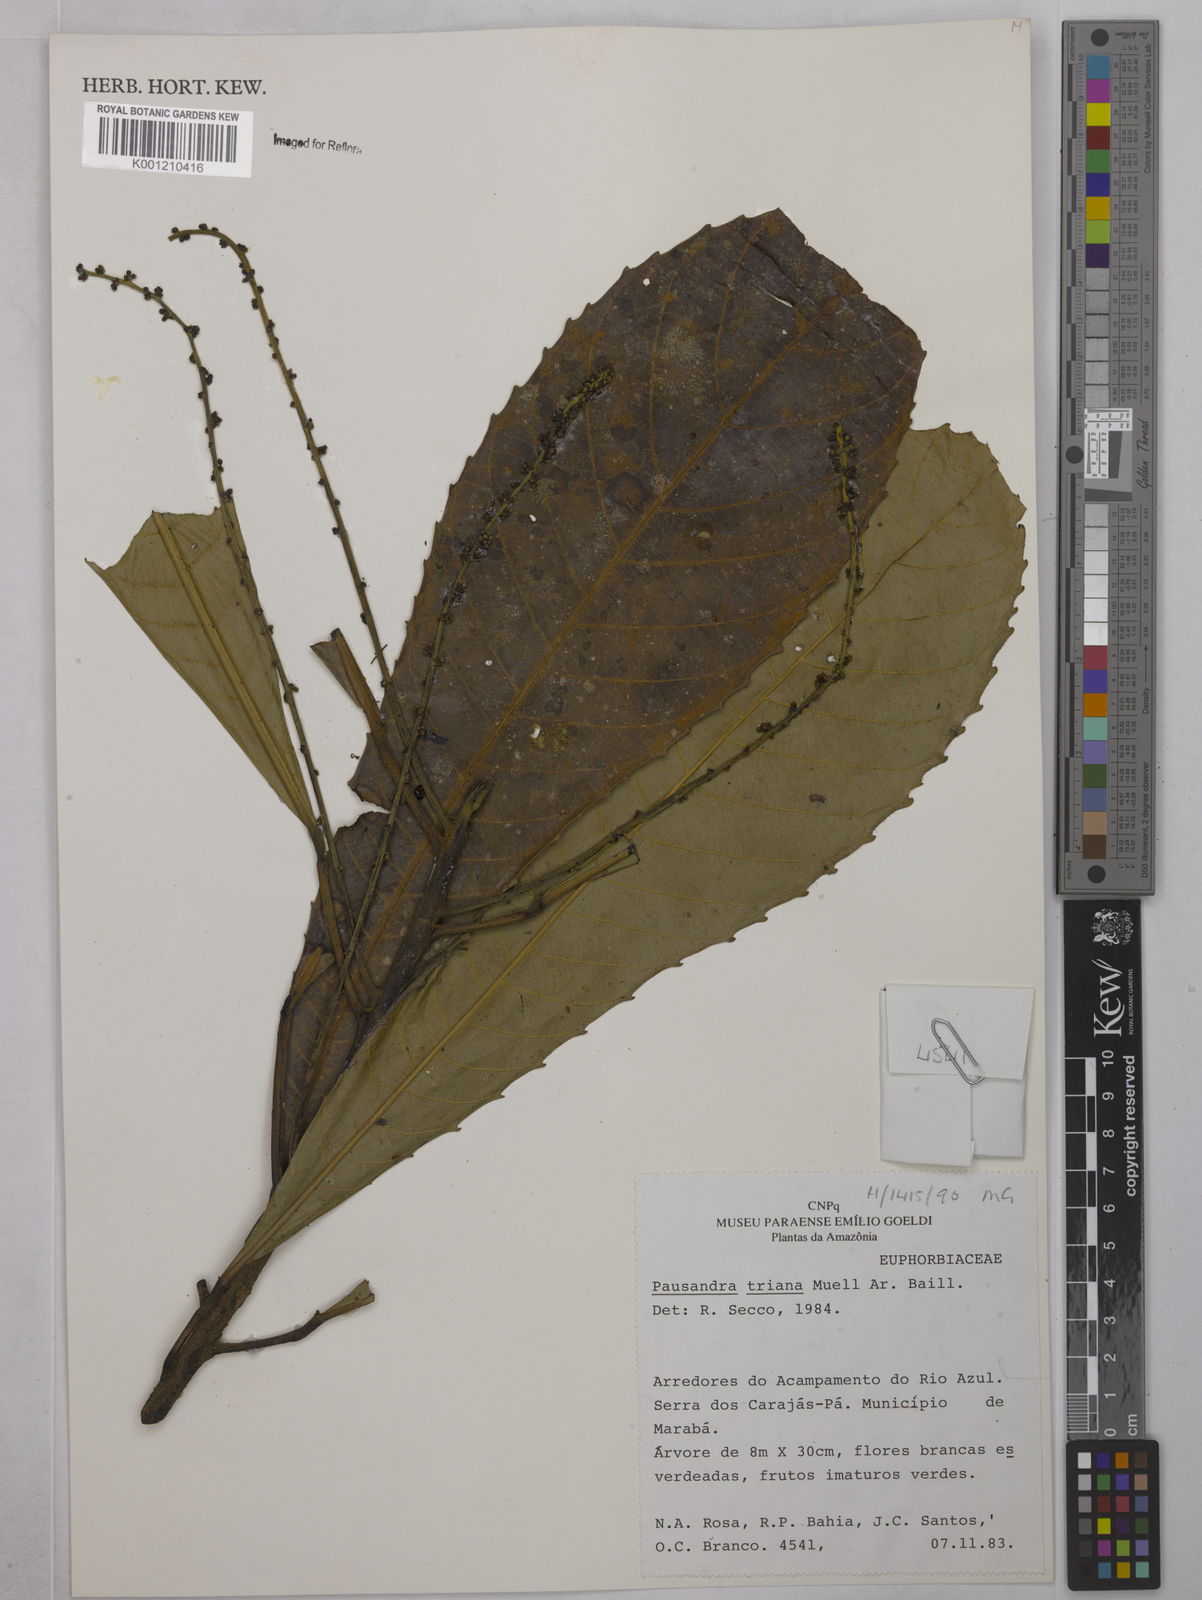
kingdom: Plantae
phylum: Tracheophyta
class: Magnoliopsida
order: Malpighiales
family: Euphorbiaceae
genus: Pausandra
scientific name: Pausandra
